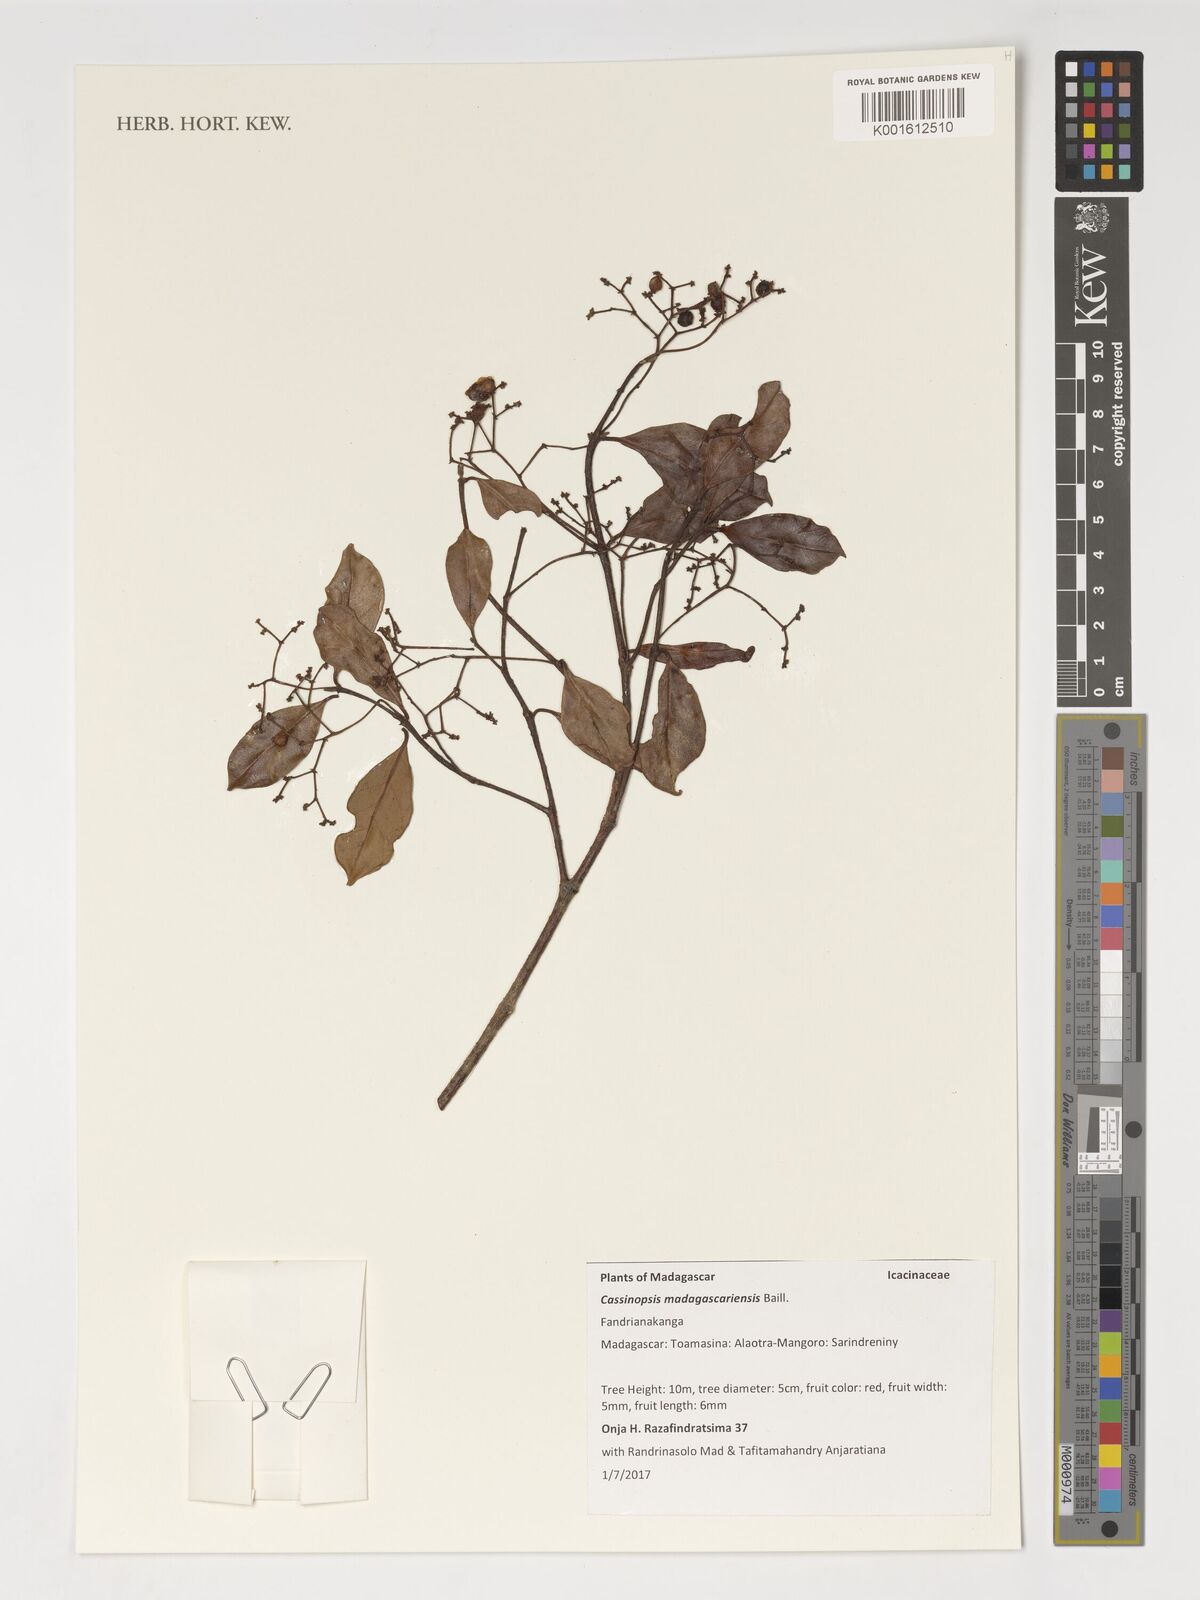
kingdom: Plantae
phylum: Tracheophyta
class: Magnoliopsida
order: Icacinales
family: Icacinaceae
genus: Cassinopsis
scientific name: Cassinopsis madagascariensis
